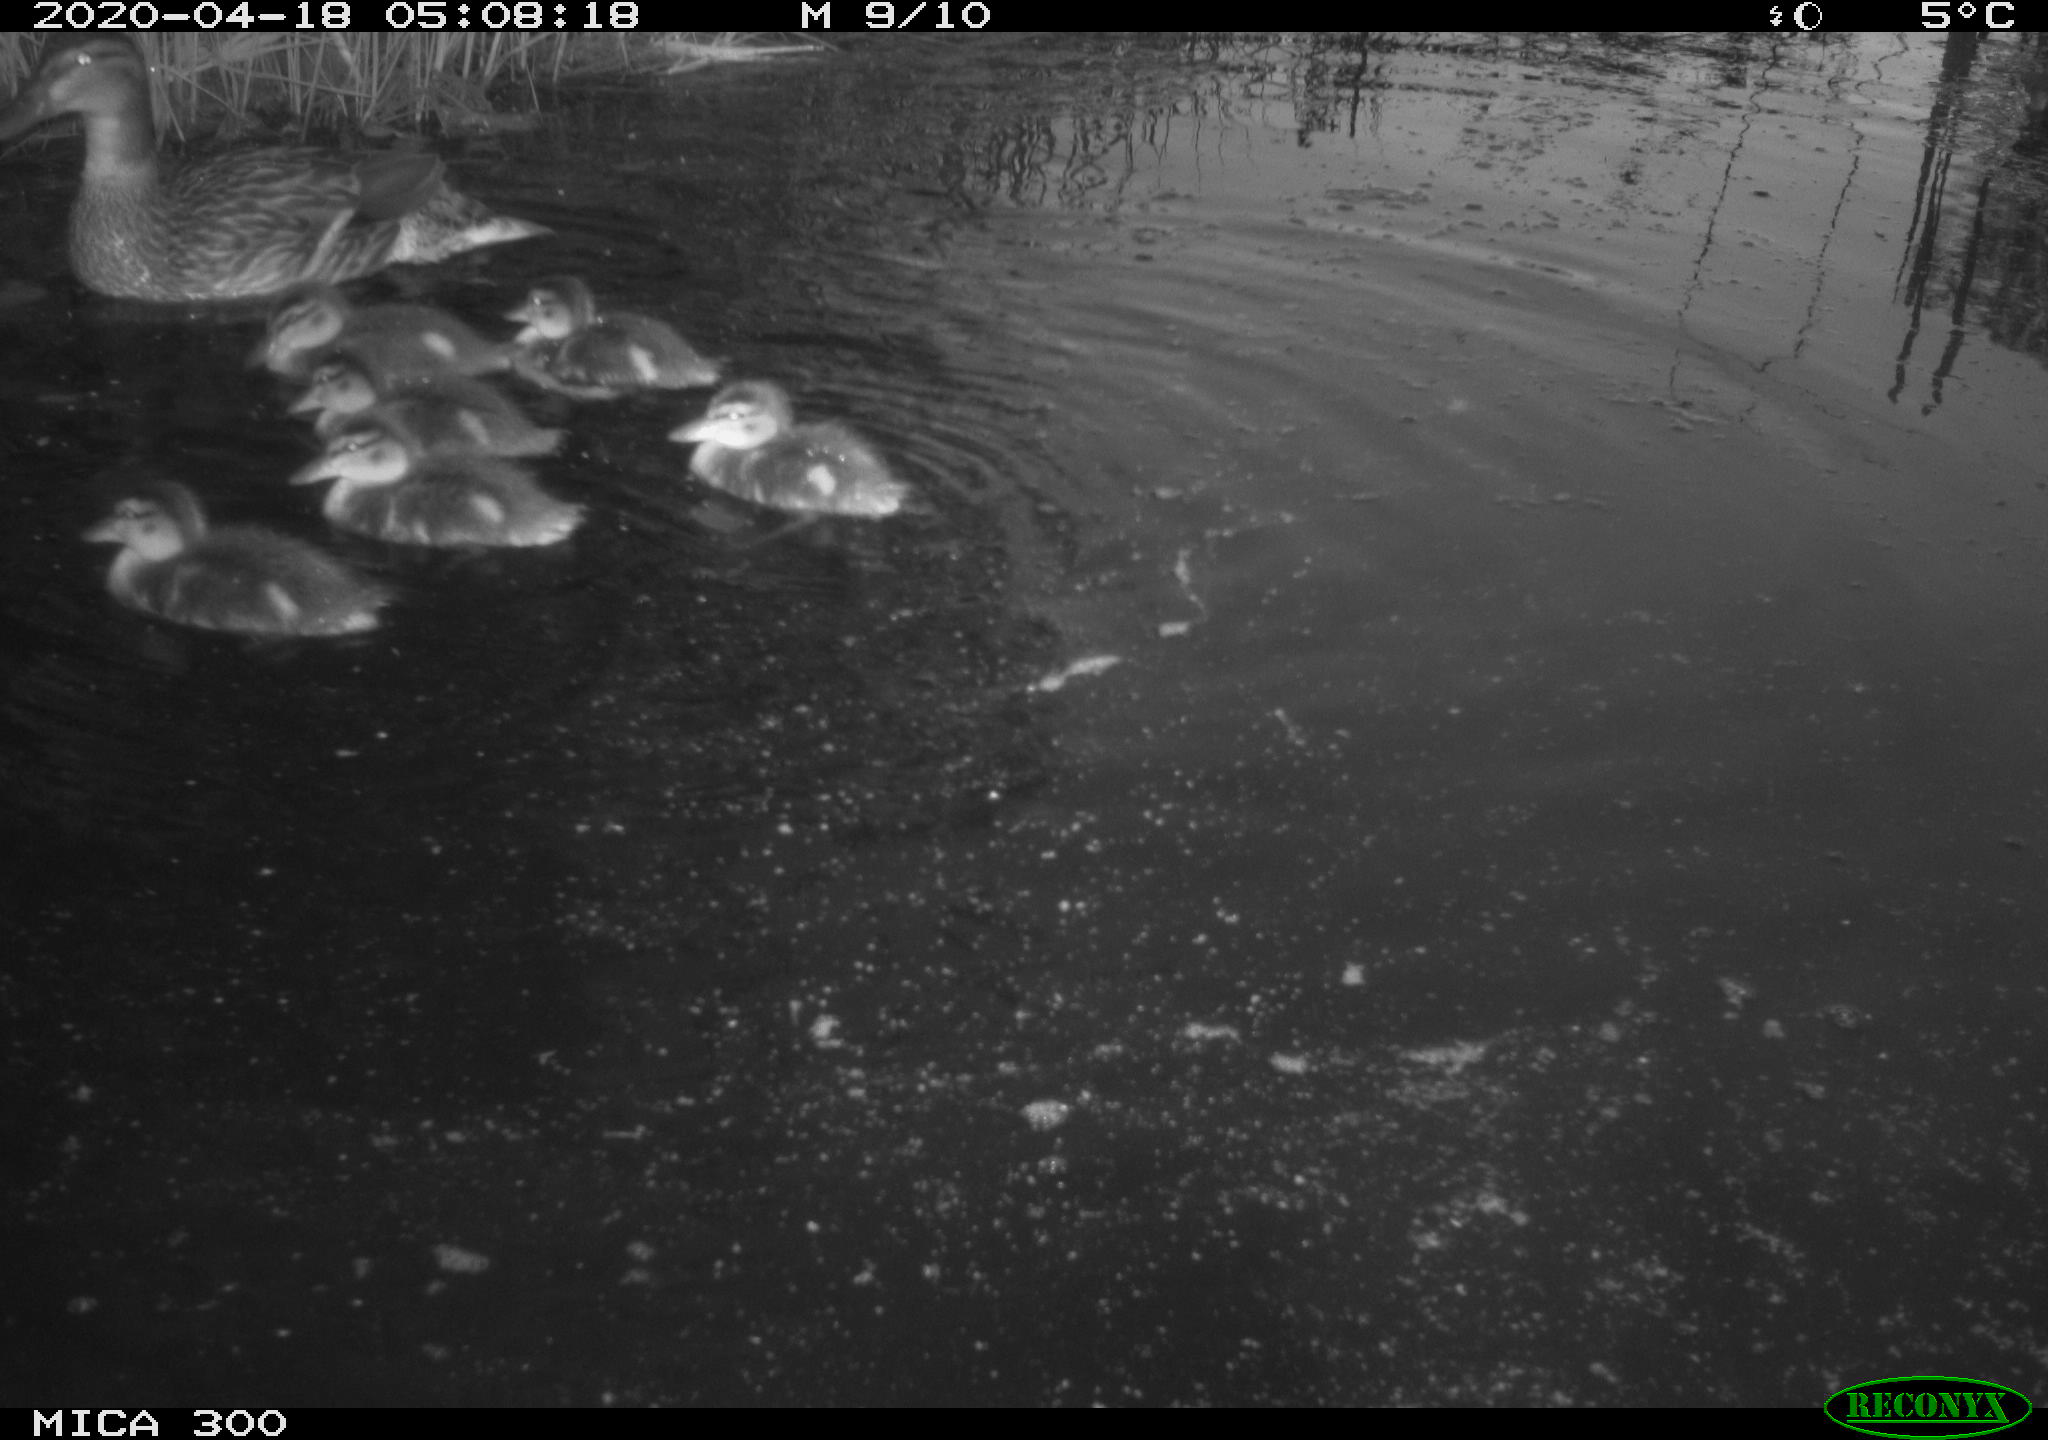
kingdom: Animalia
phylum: Chordata
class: Aves
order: Anseriformes
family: Anatidae
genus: Anas
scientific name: Anas platyrhynchos
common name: Mallard
